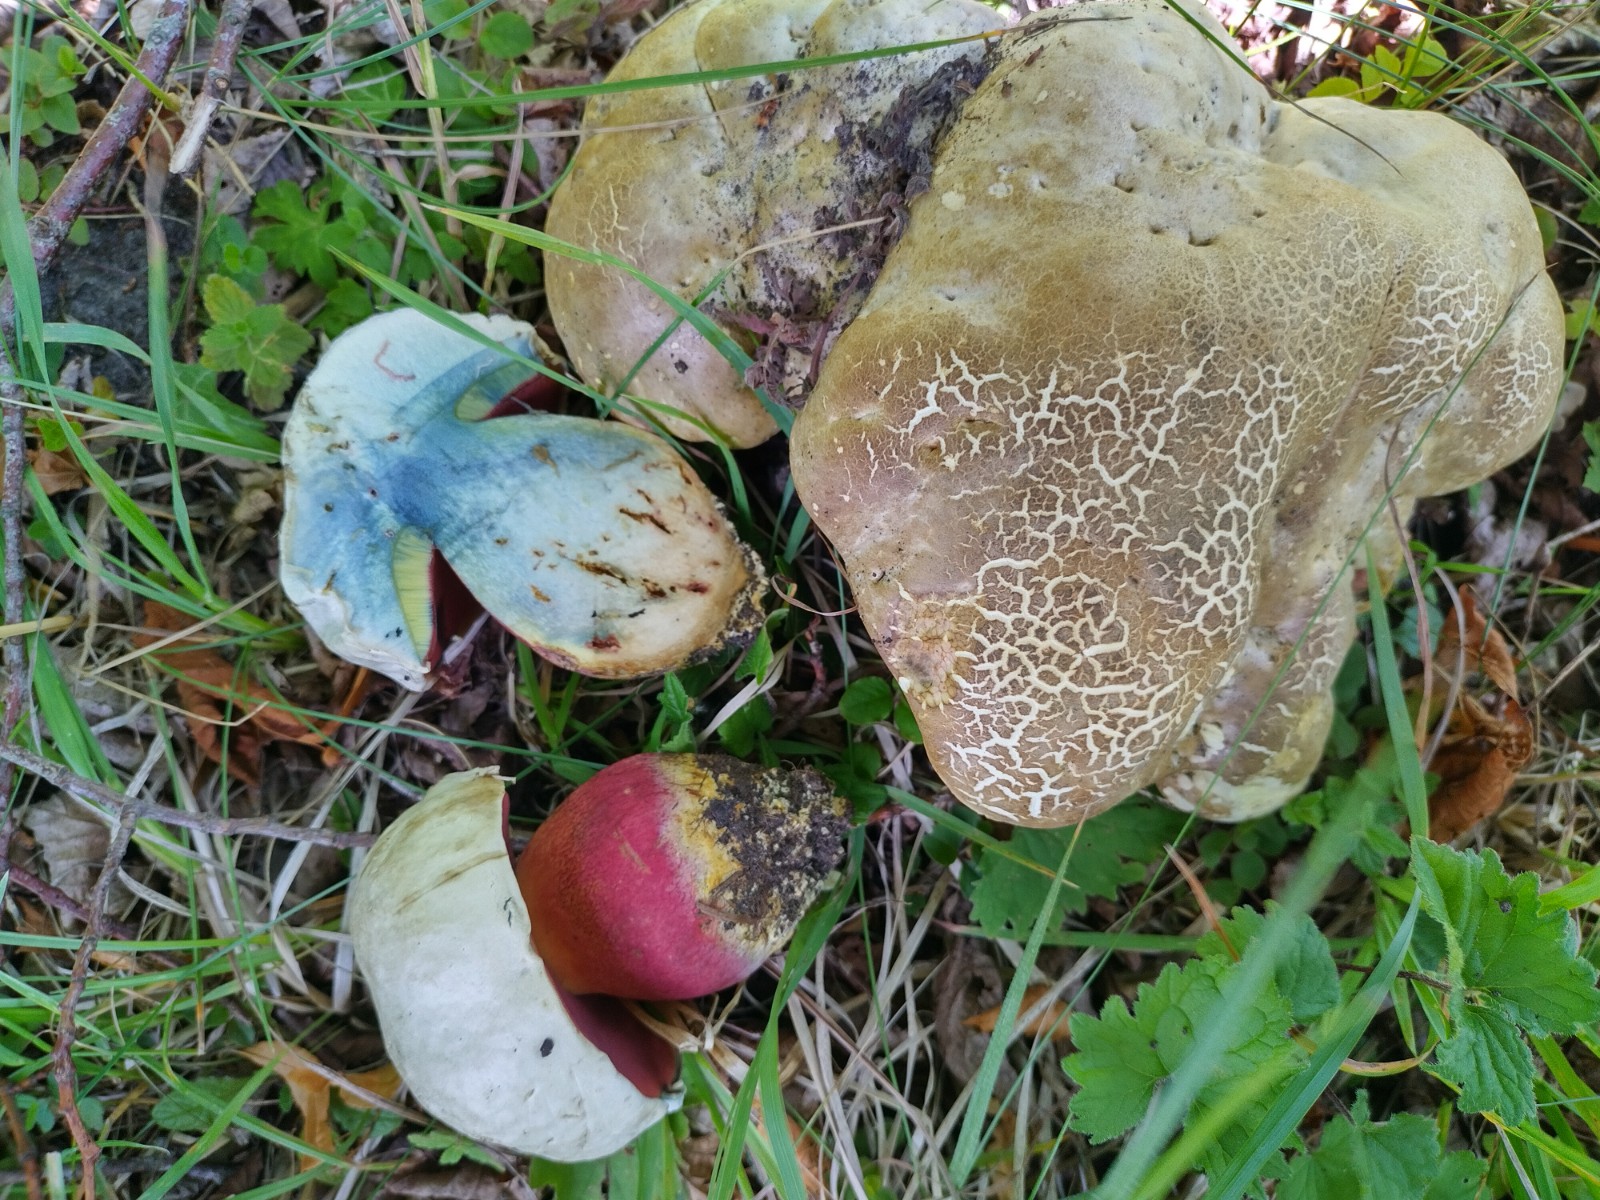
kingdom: Fungi
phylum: Basidiomycota
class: Agaricomycetes
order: Boletales
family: Boletaceae
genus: Rubroboletus
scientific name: Rubroboletus satanas
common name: Satans rørhat
